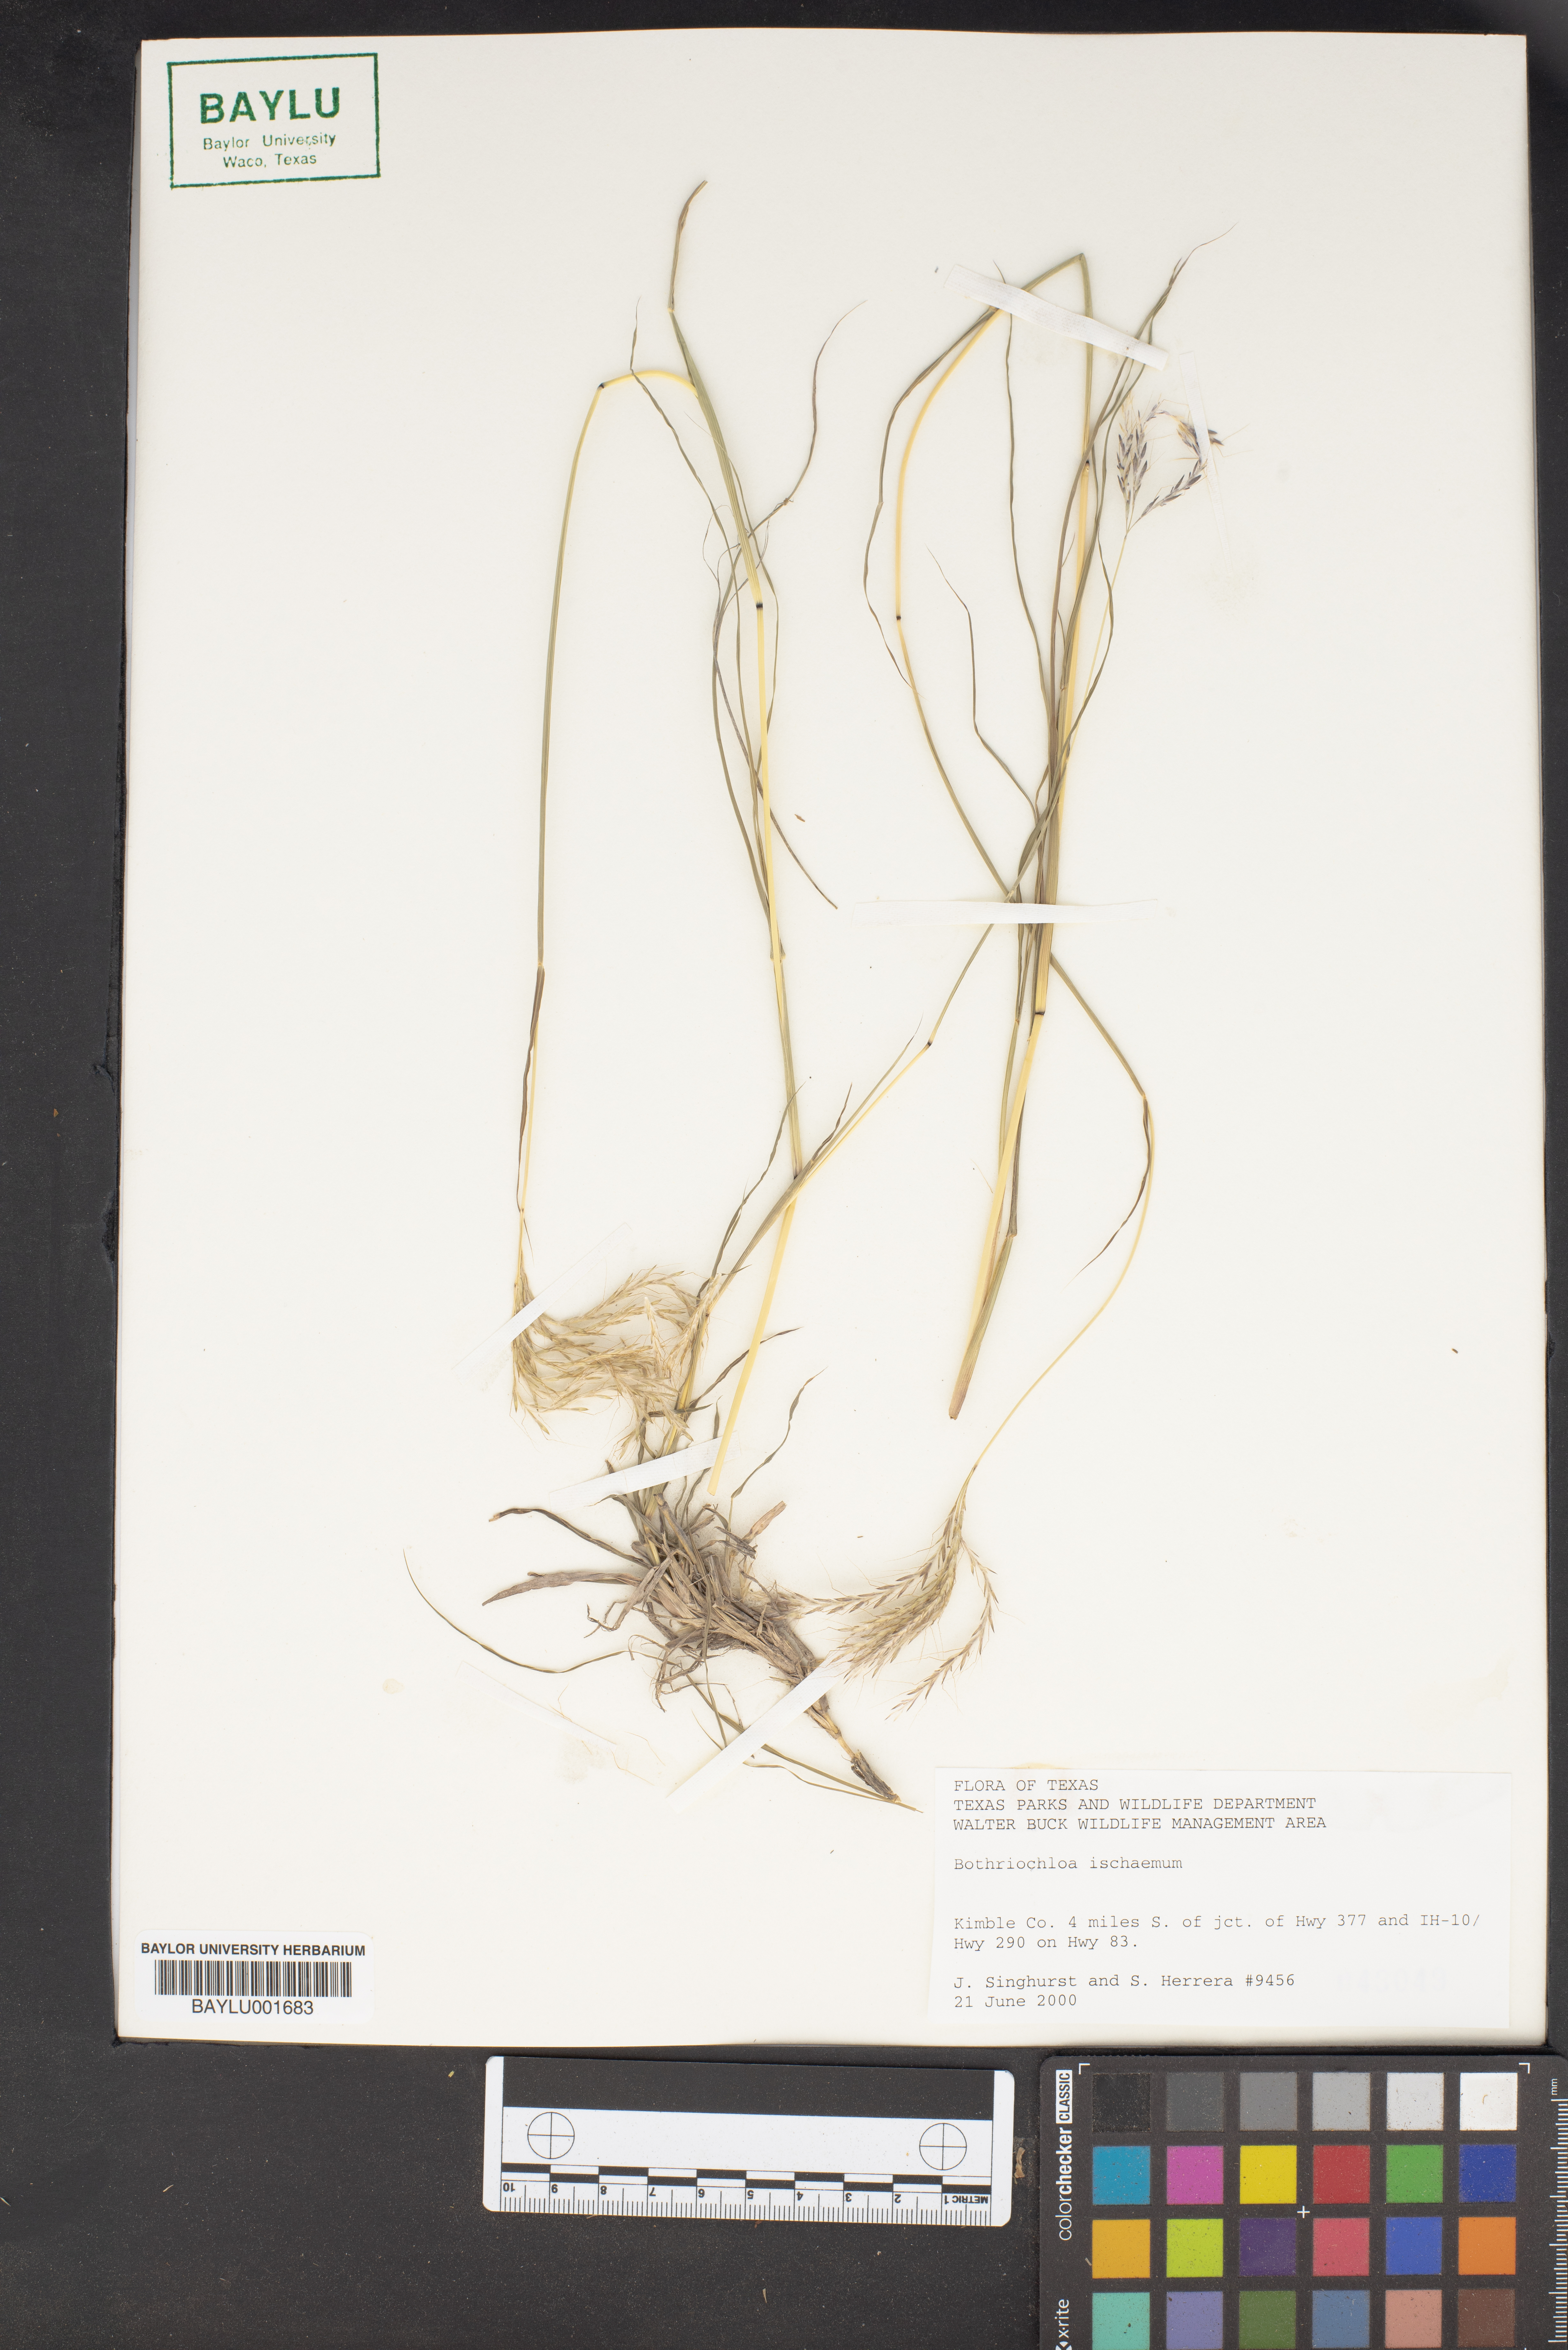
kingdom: Plantae
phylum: Tracheophyta
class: Liliopsida
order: Poales
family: Poaceae
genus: Bothriochloa
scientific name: Bothriochloa ischaemum
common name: Yellow bluestem
